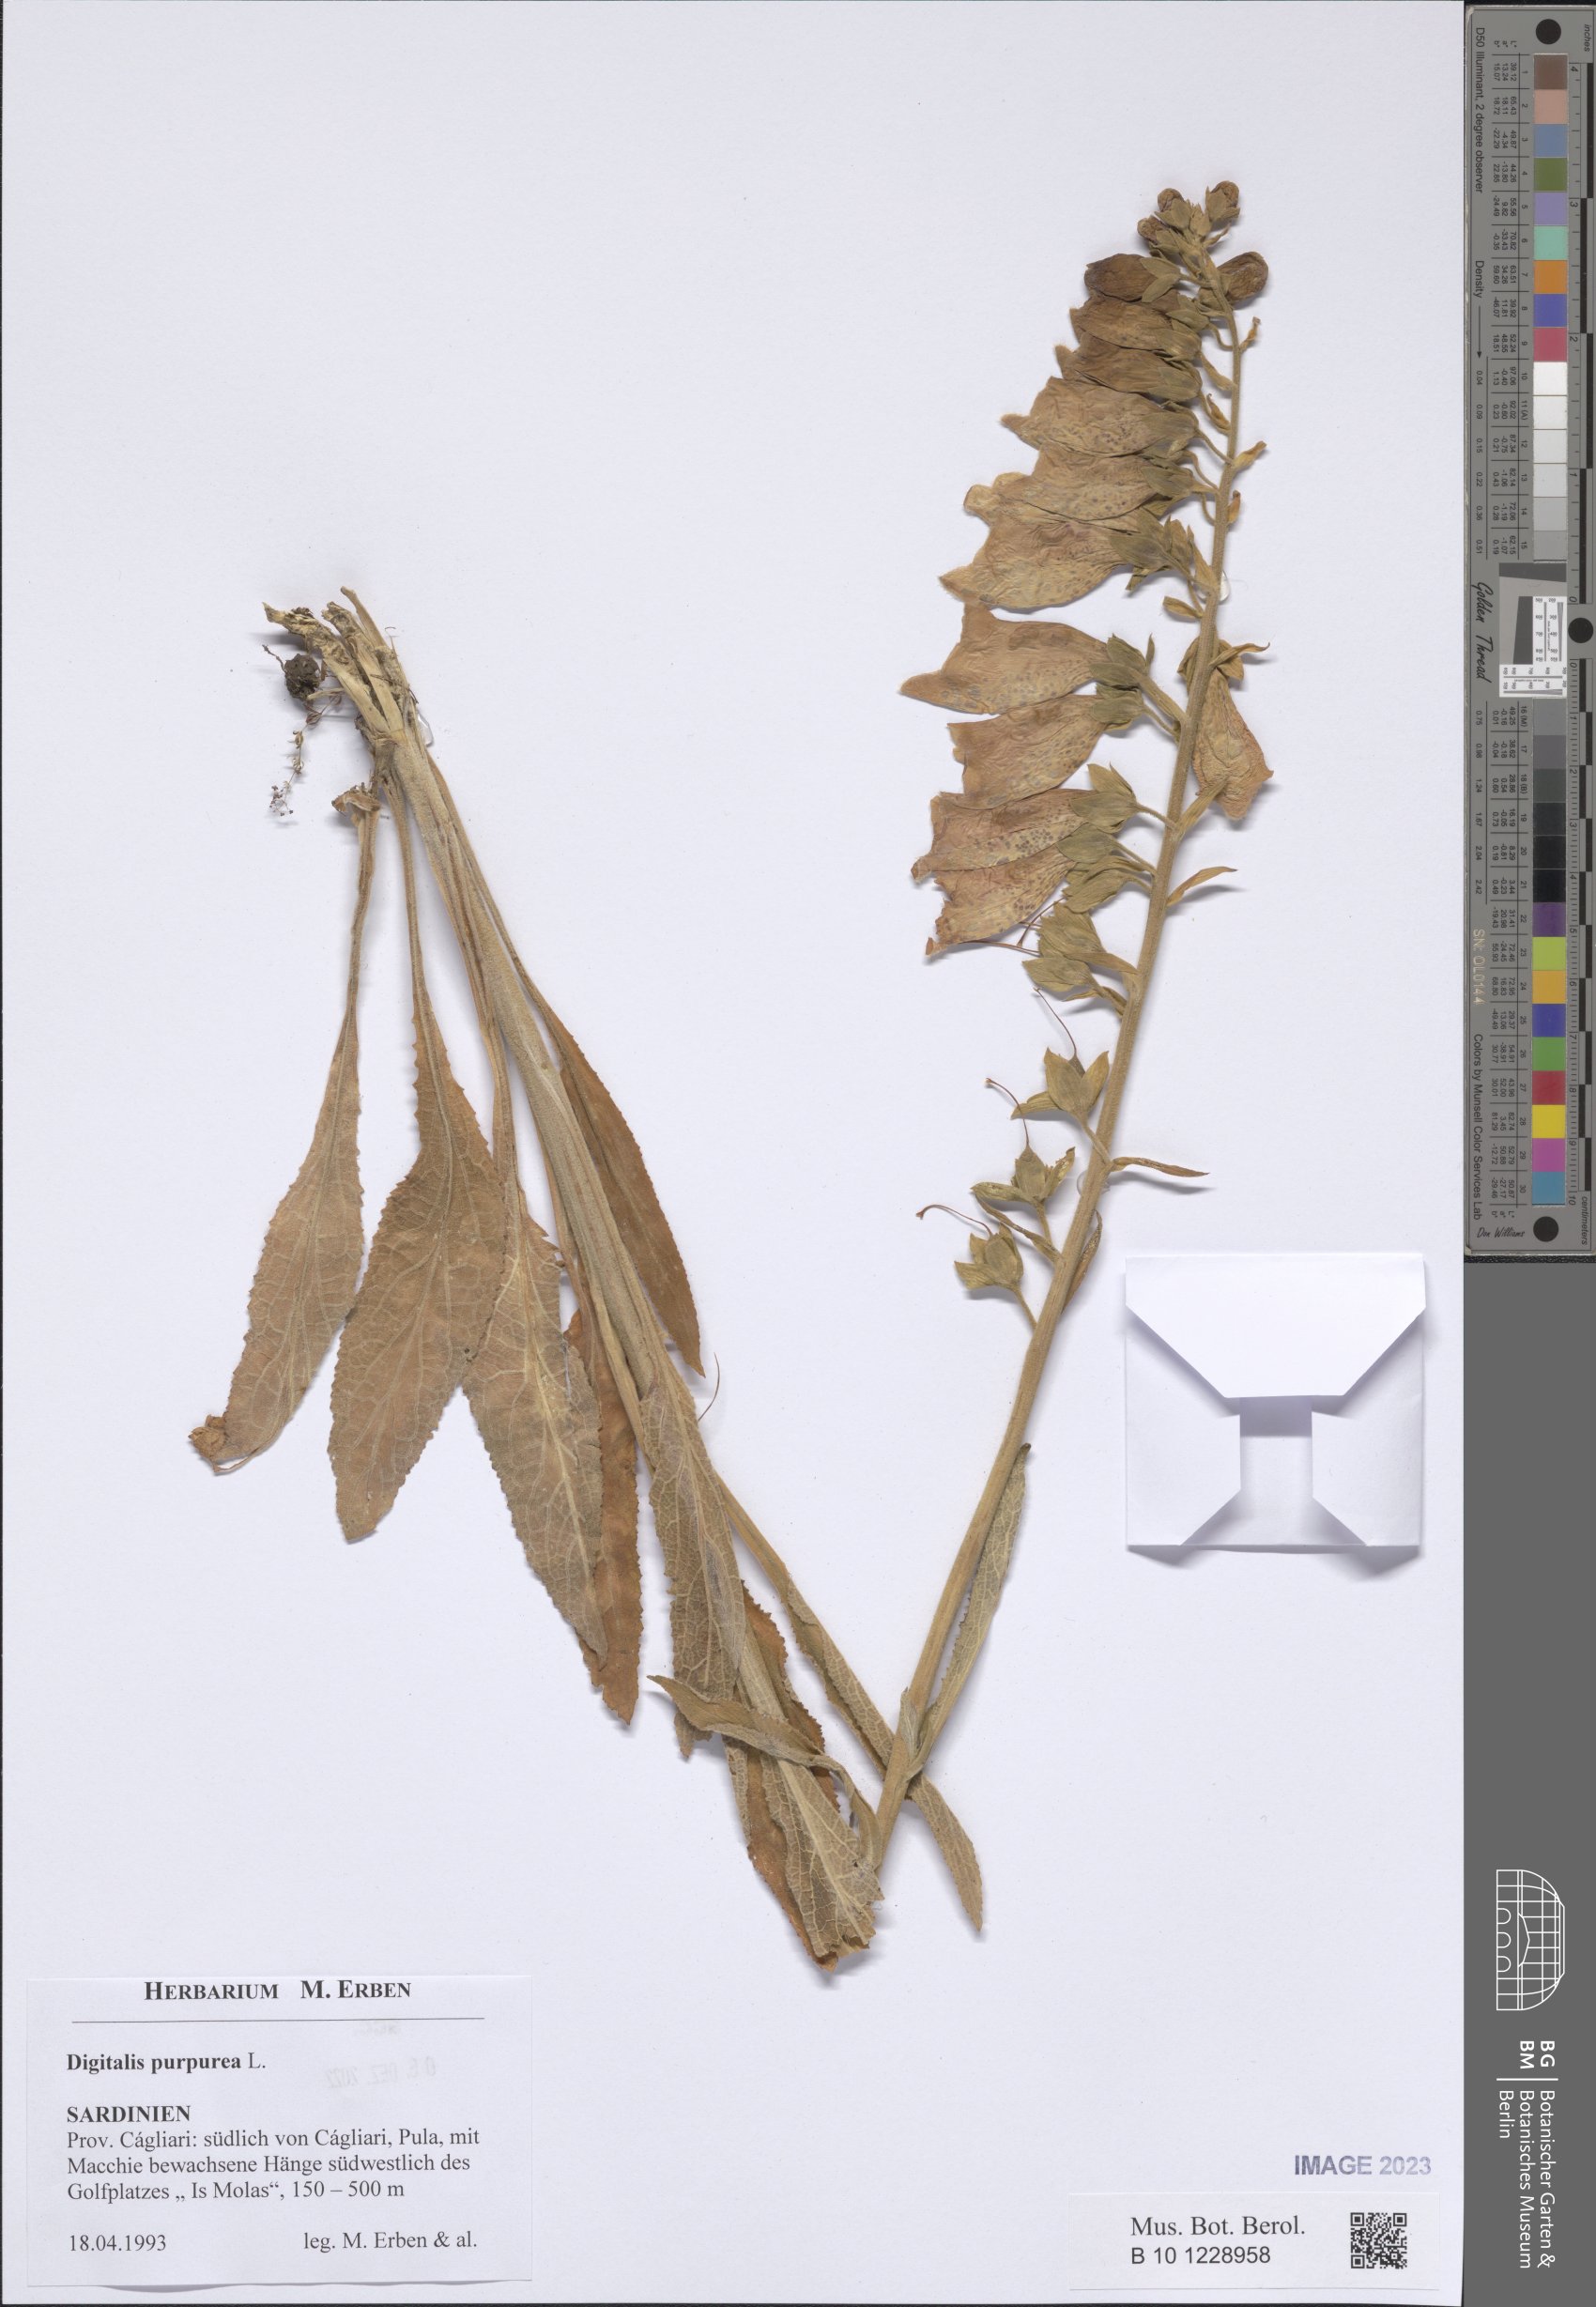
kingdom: Plantae
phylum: Tracheophyta
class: Magnoliopsida
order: Lamiales
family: Plantaginaceae
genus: Digitalis
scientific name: Digitalis purpurea
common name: Foxglove
